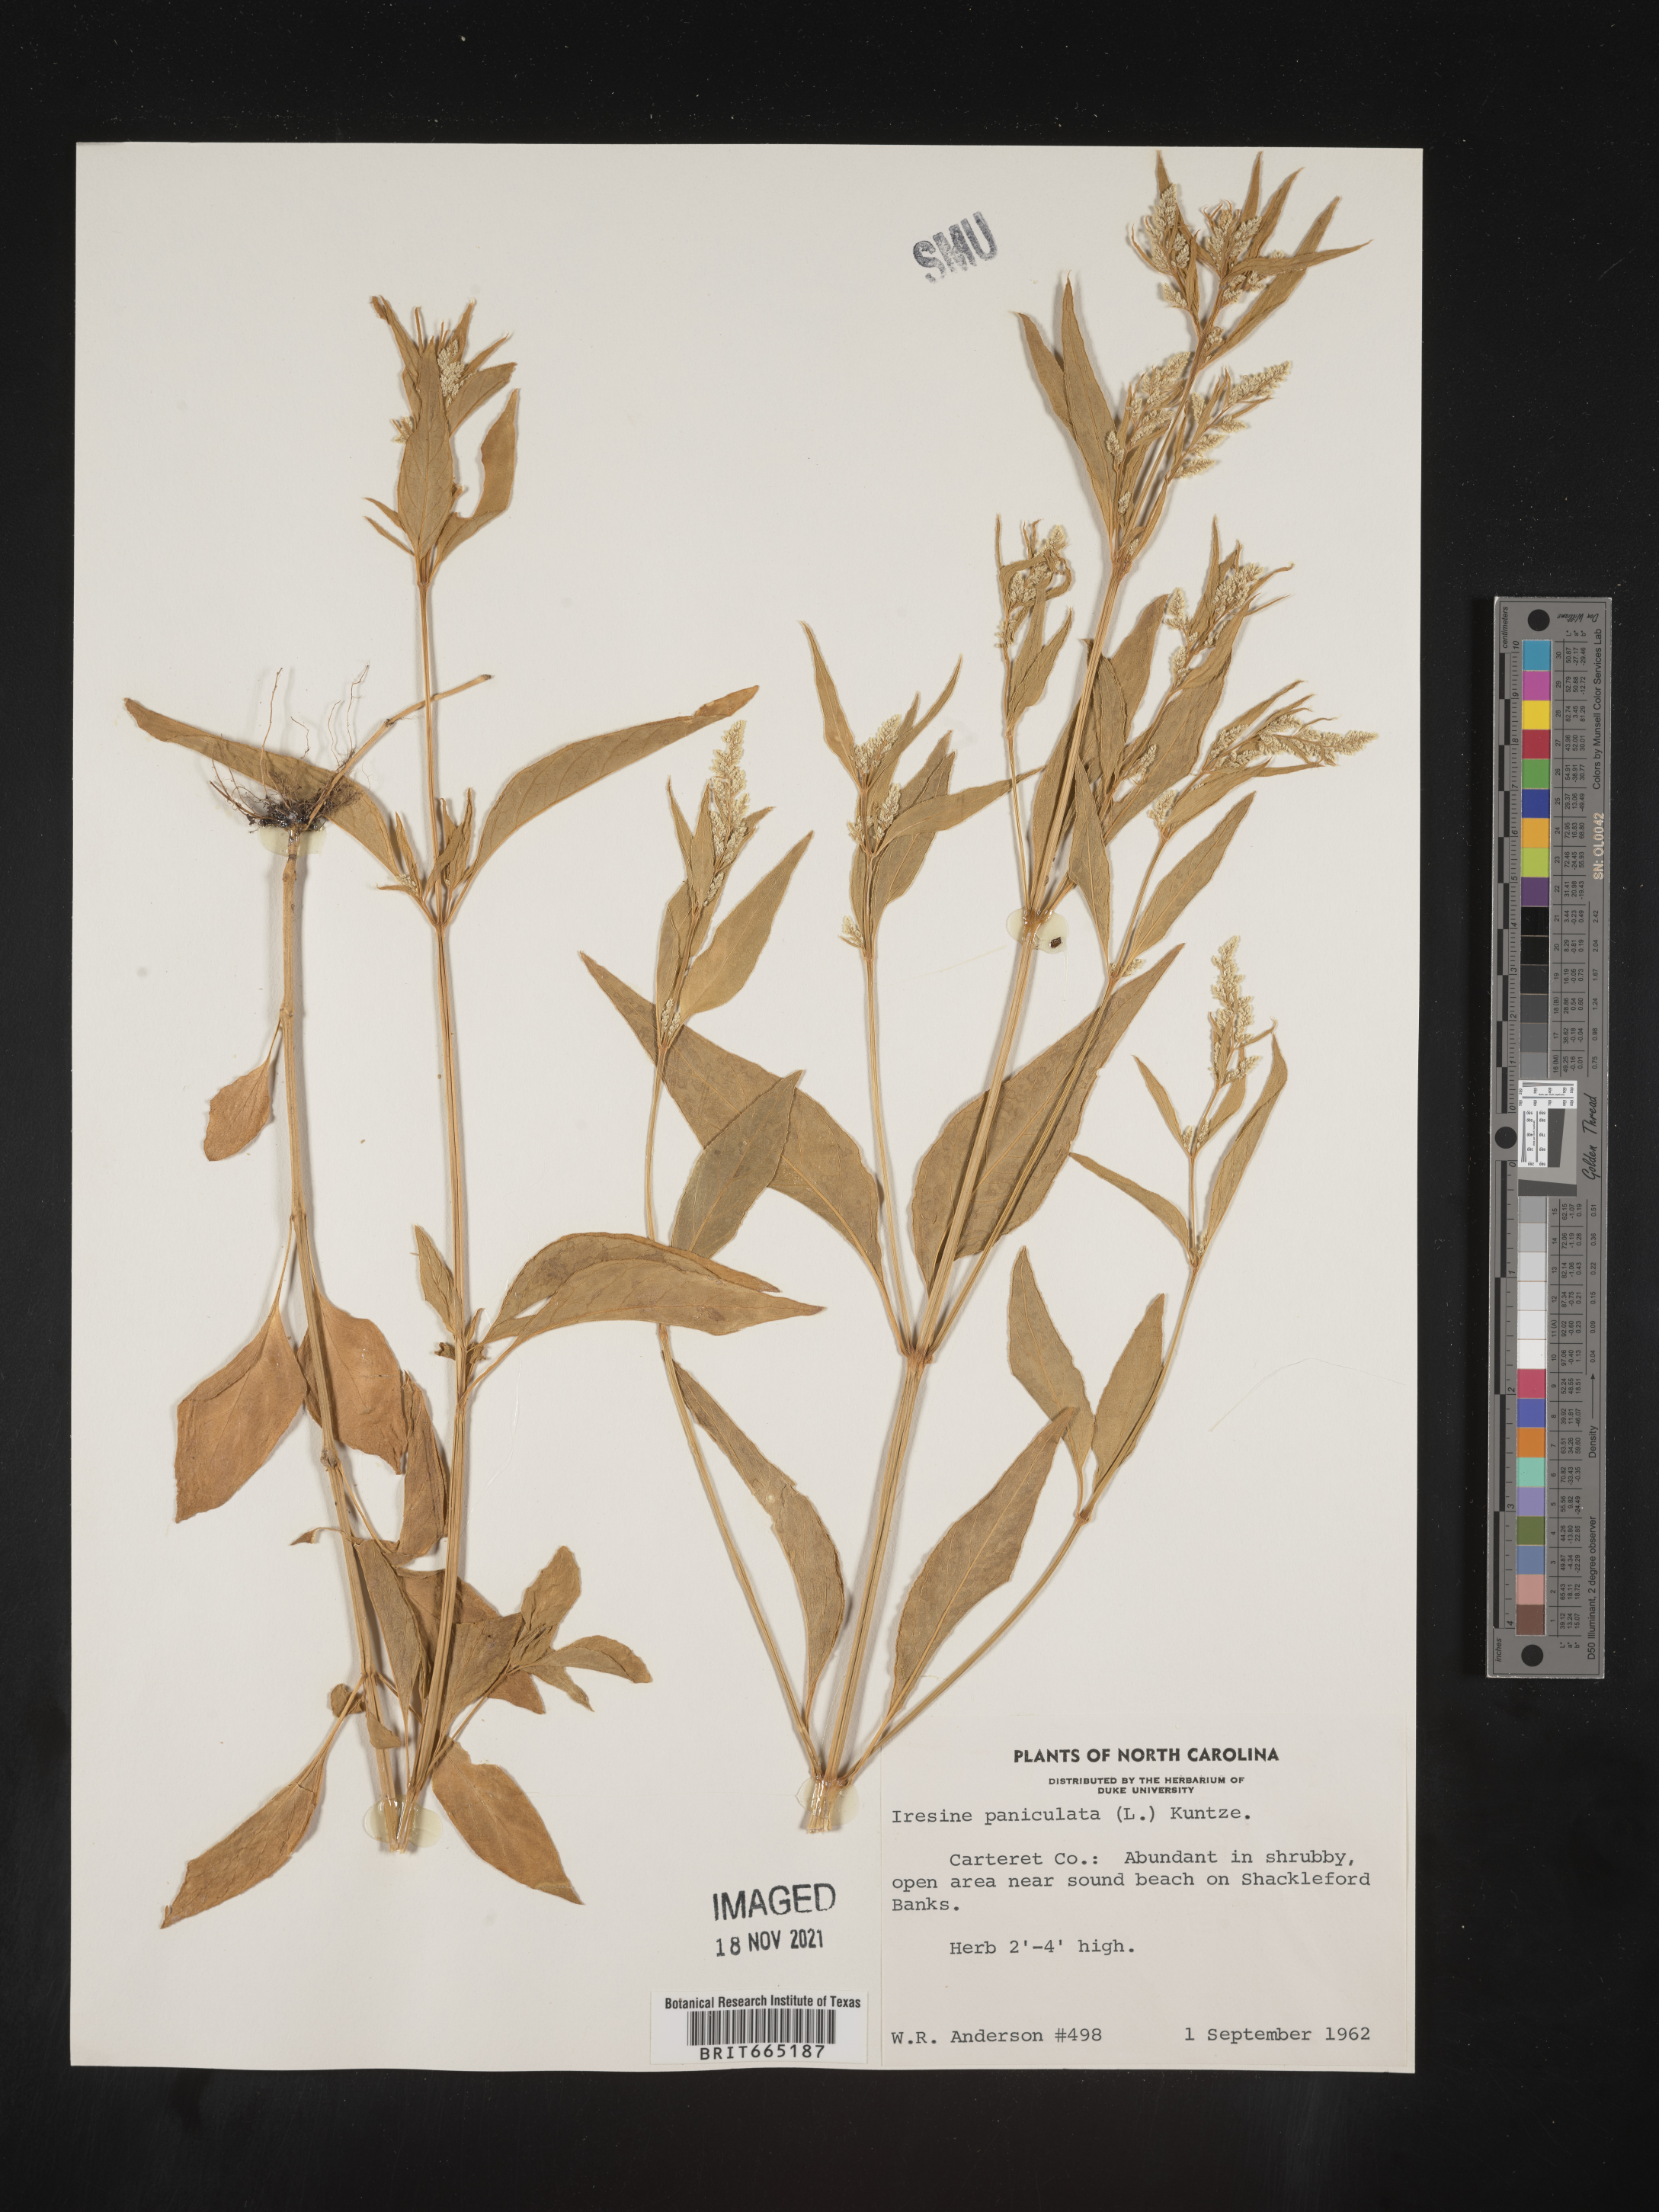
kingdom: Plantae
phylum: Tracheophyta
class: Magnoliopsida
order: Caryophyllales
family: Amaranthaceae
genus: Iresine
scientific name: Iresine rhizomatosa
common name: Juda's-bush
